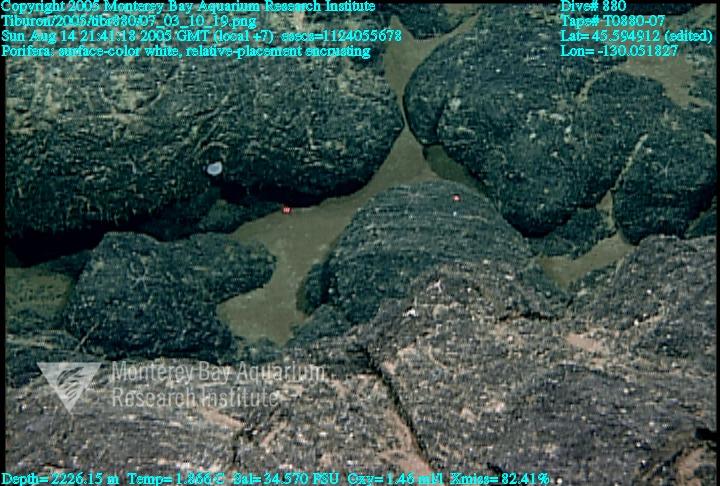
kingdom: Animalia
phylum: Porifera
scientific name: Porifera
